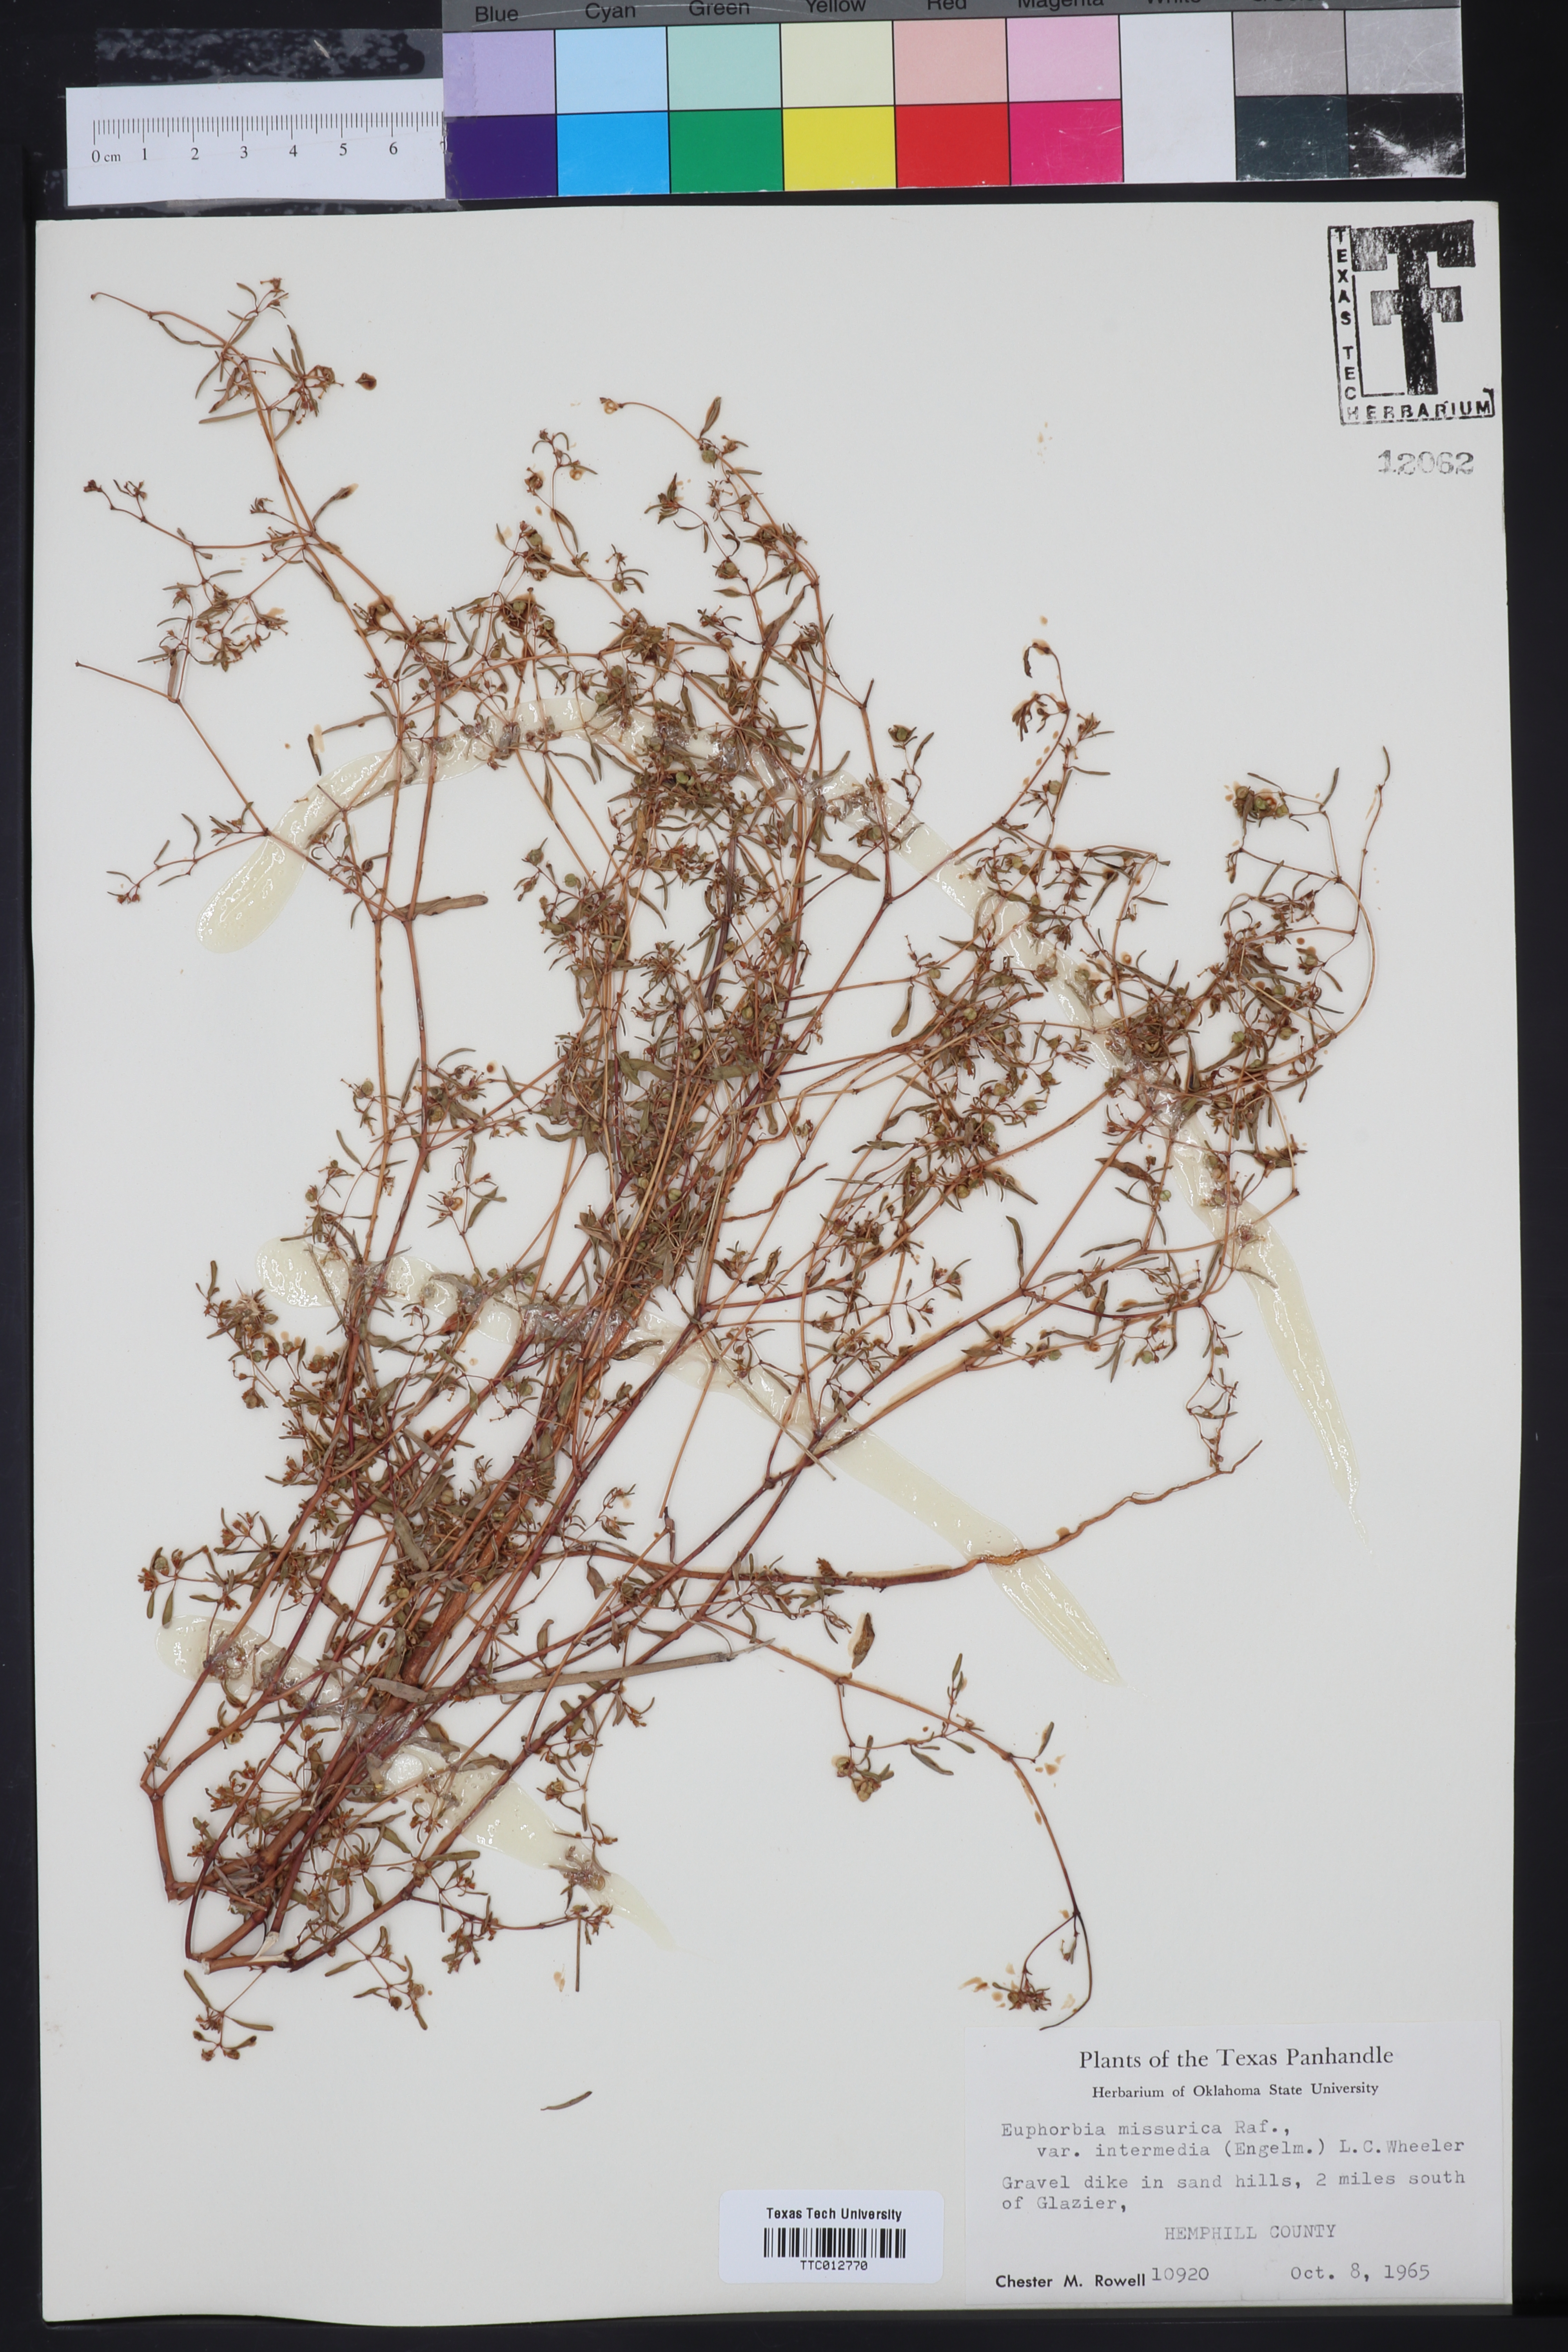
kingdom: Plantae
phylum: Tracheophyta
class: Magnoliopsida
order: Malpighiales
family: Euphorbiaceae
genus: Euphorbia
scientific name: Euphorbia missurica
